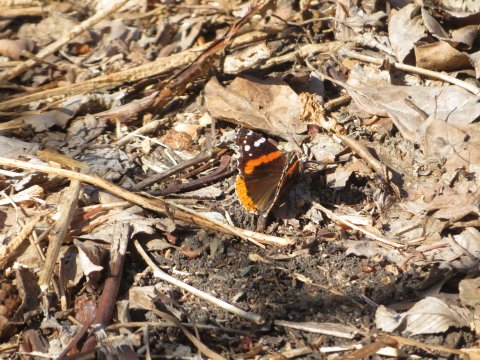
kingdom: Animalia
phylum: Arthropoda
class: Insecta
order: Lepidoptera
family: Nymphalidae
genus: Vanessa
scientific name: Vanessa atalanta
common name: Red Admiral
